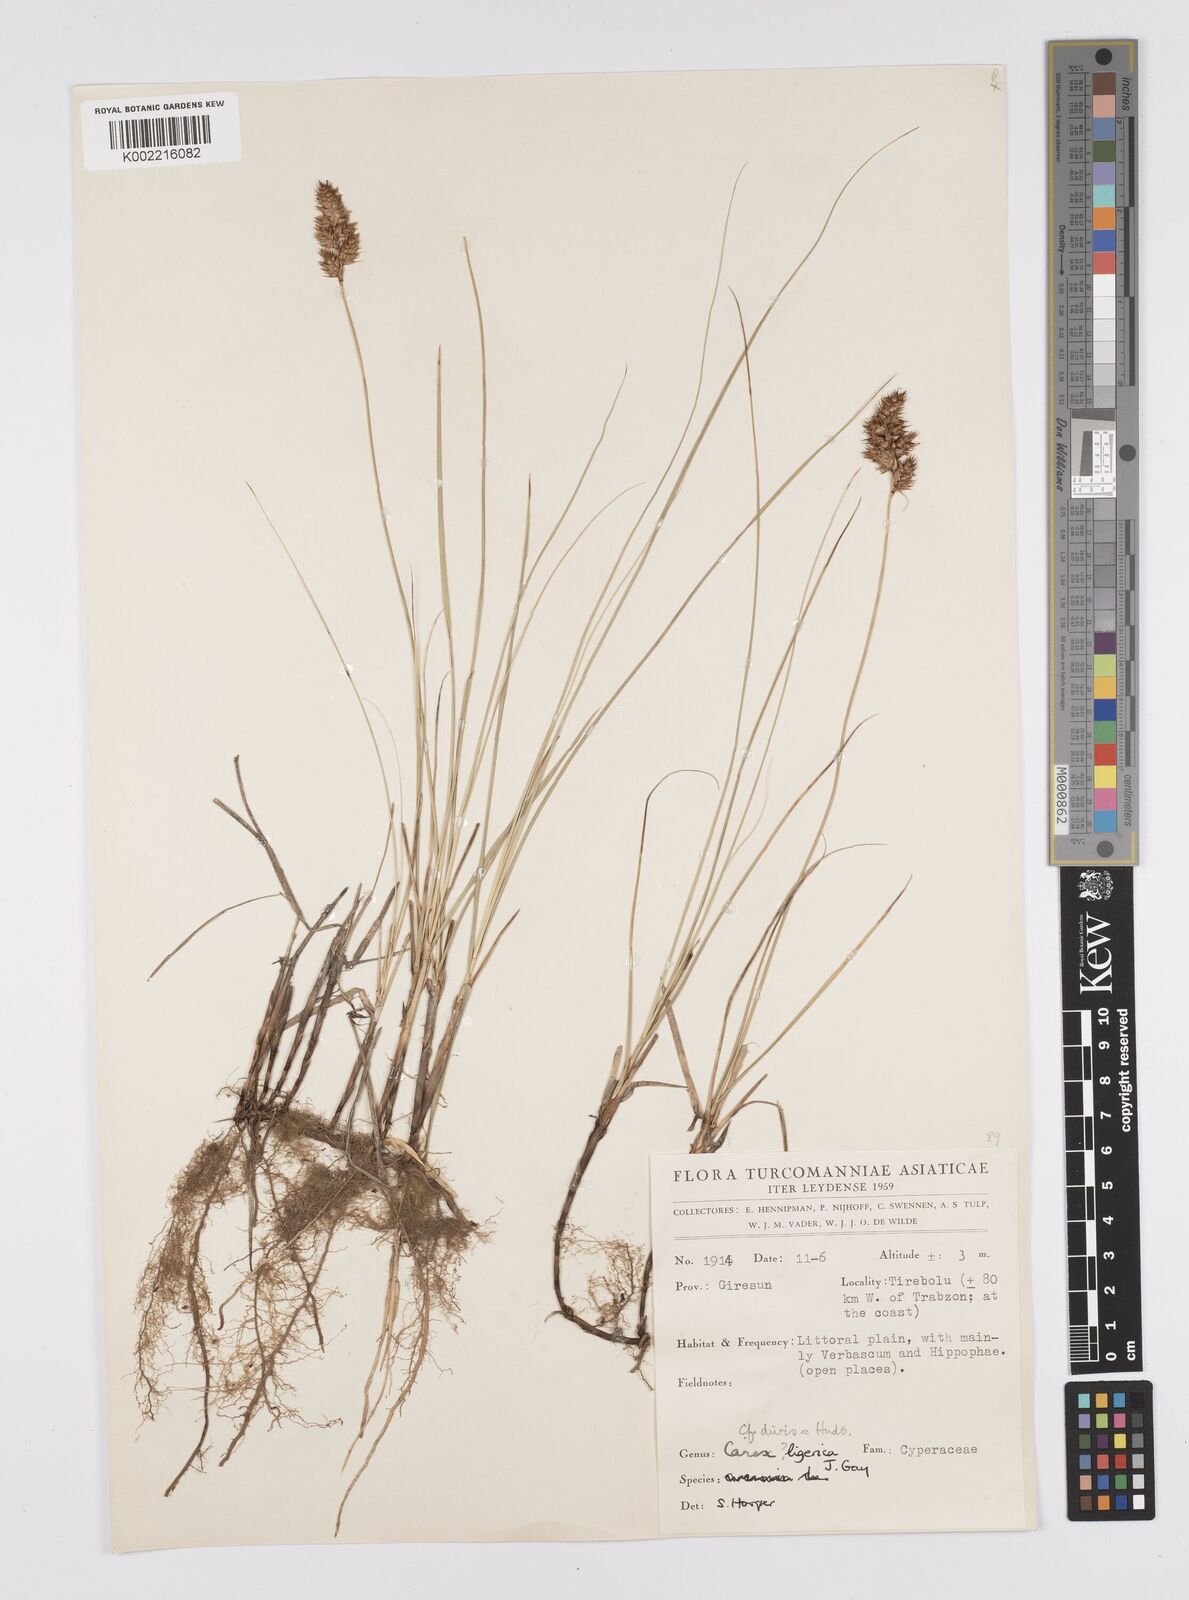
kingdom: Plantae
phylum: Tracheophyta
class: Liliopsida
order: Poales
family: Cyperaceae
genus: Carex
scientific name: Carex divisa
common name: Divided sedge
